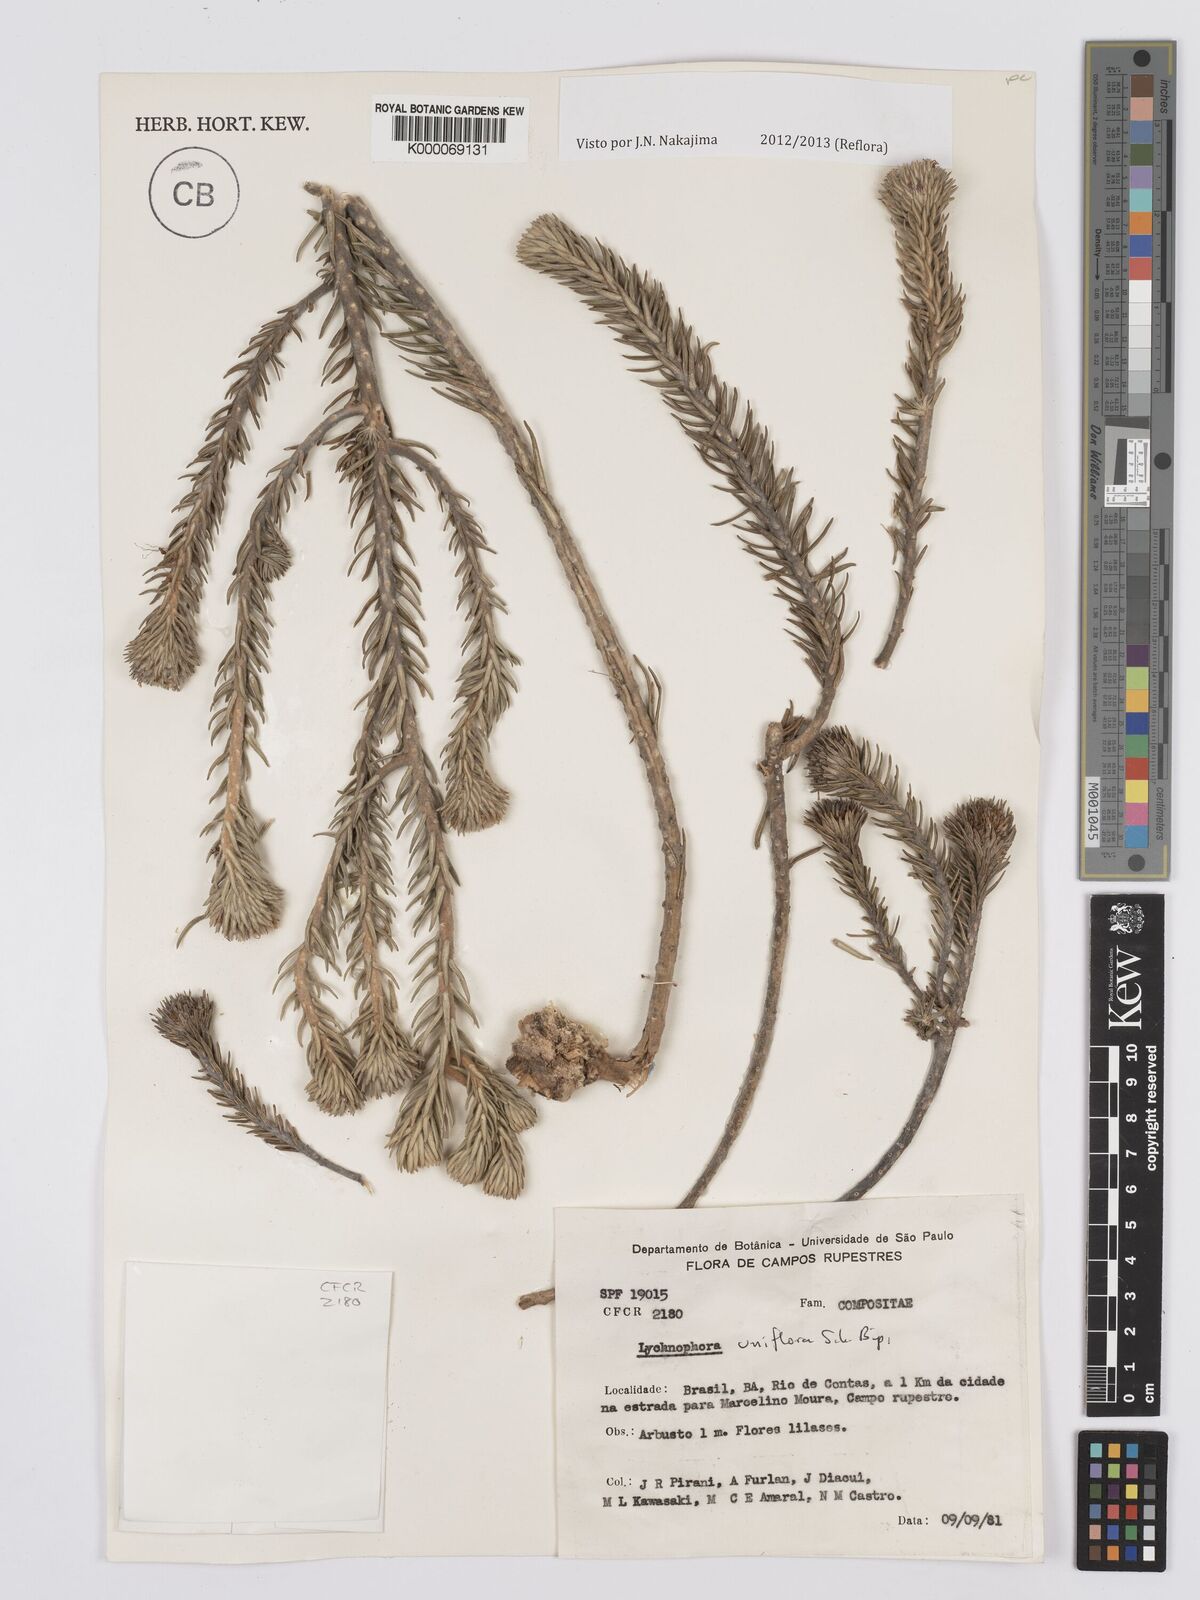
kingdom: Plantae
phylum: Tracheophyta
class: Magnoliopsida
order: Asterales
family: Asteraceae
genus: Lychnophora
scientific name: Lychnophora uniflora
